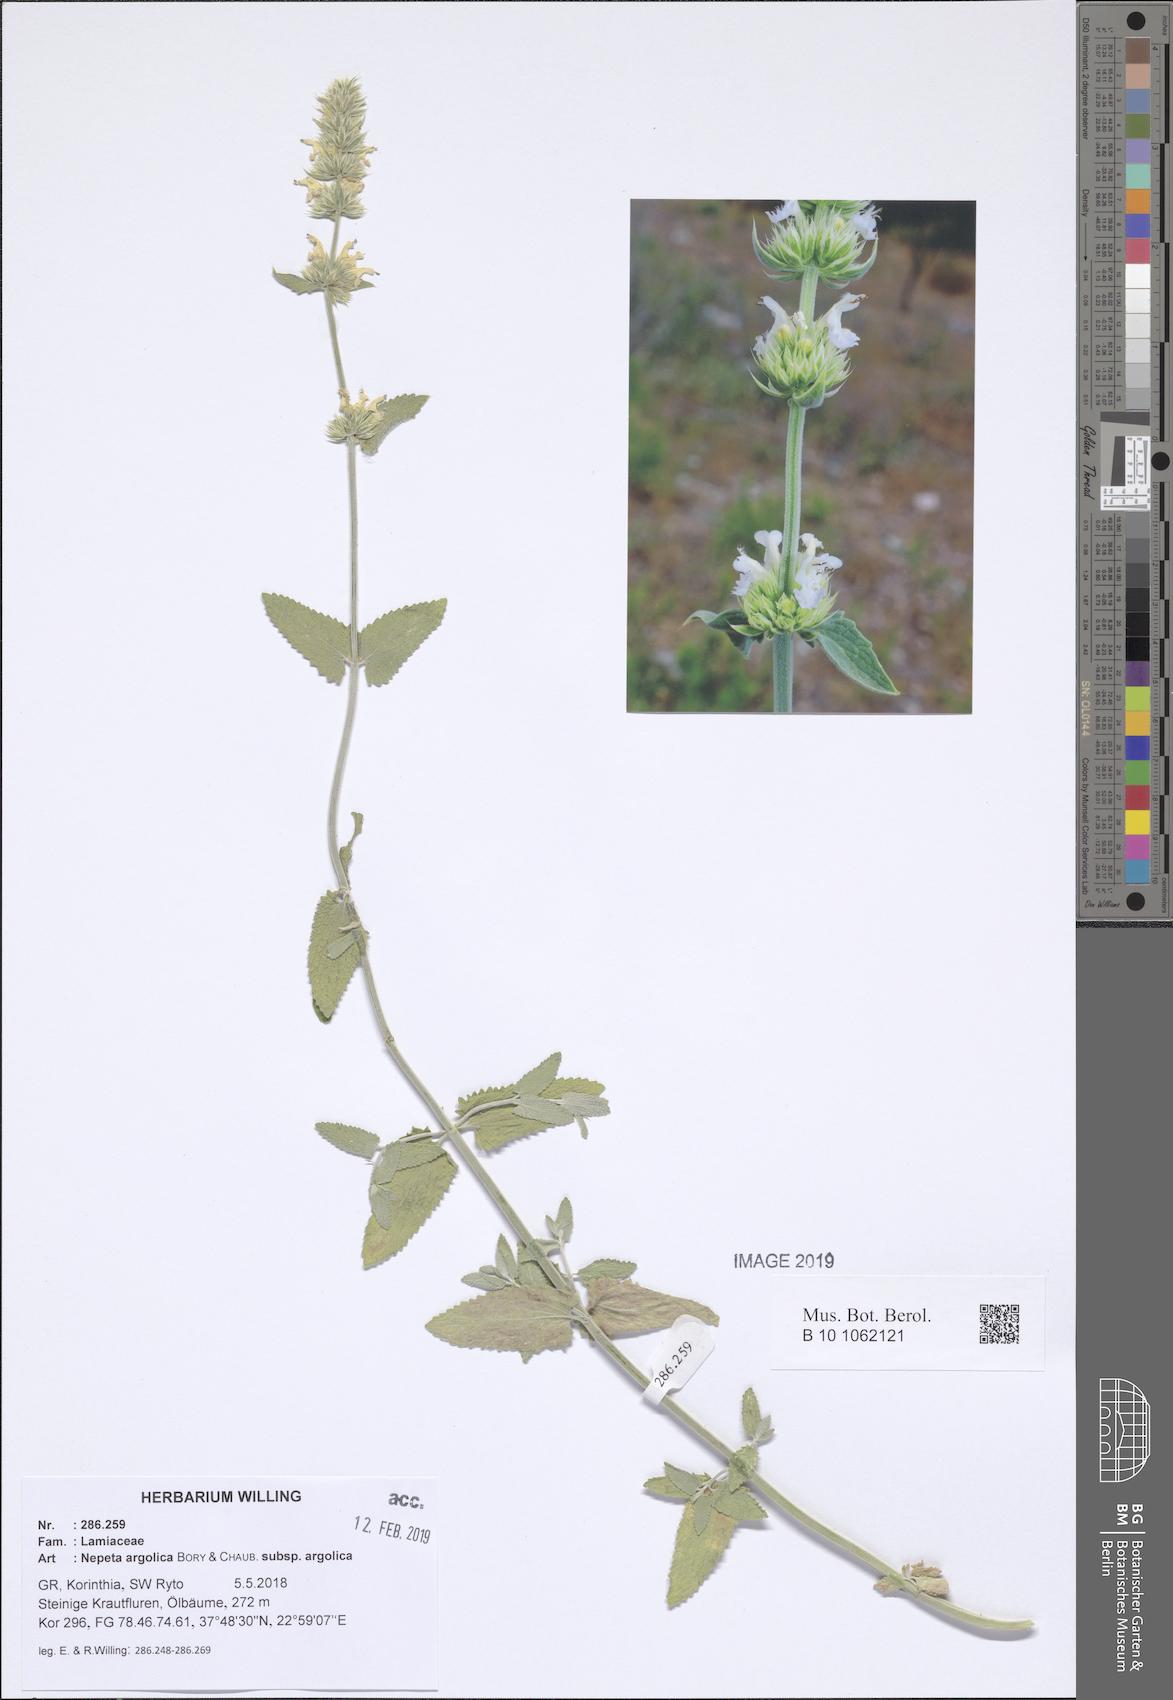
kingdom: Plantae
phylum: Tracheophyta
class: Magnoliopsida
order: Lamiales
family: Lamiaceae
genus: Nepeta
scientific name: Nepeta argolica
